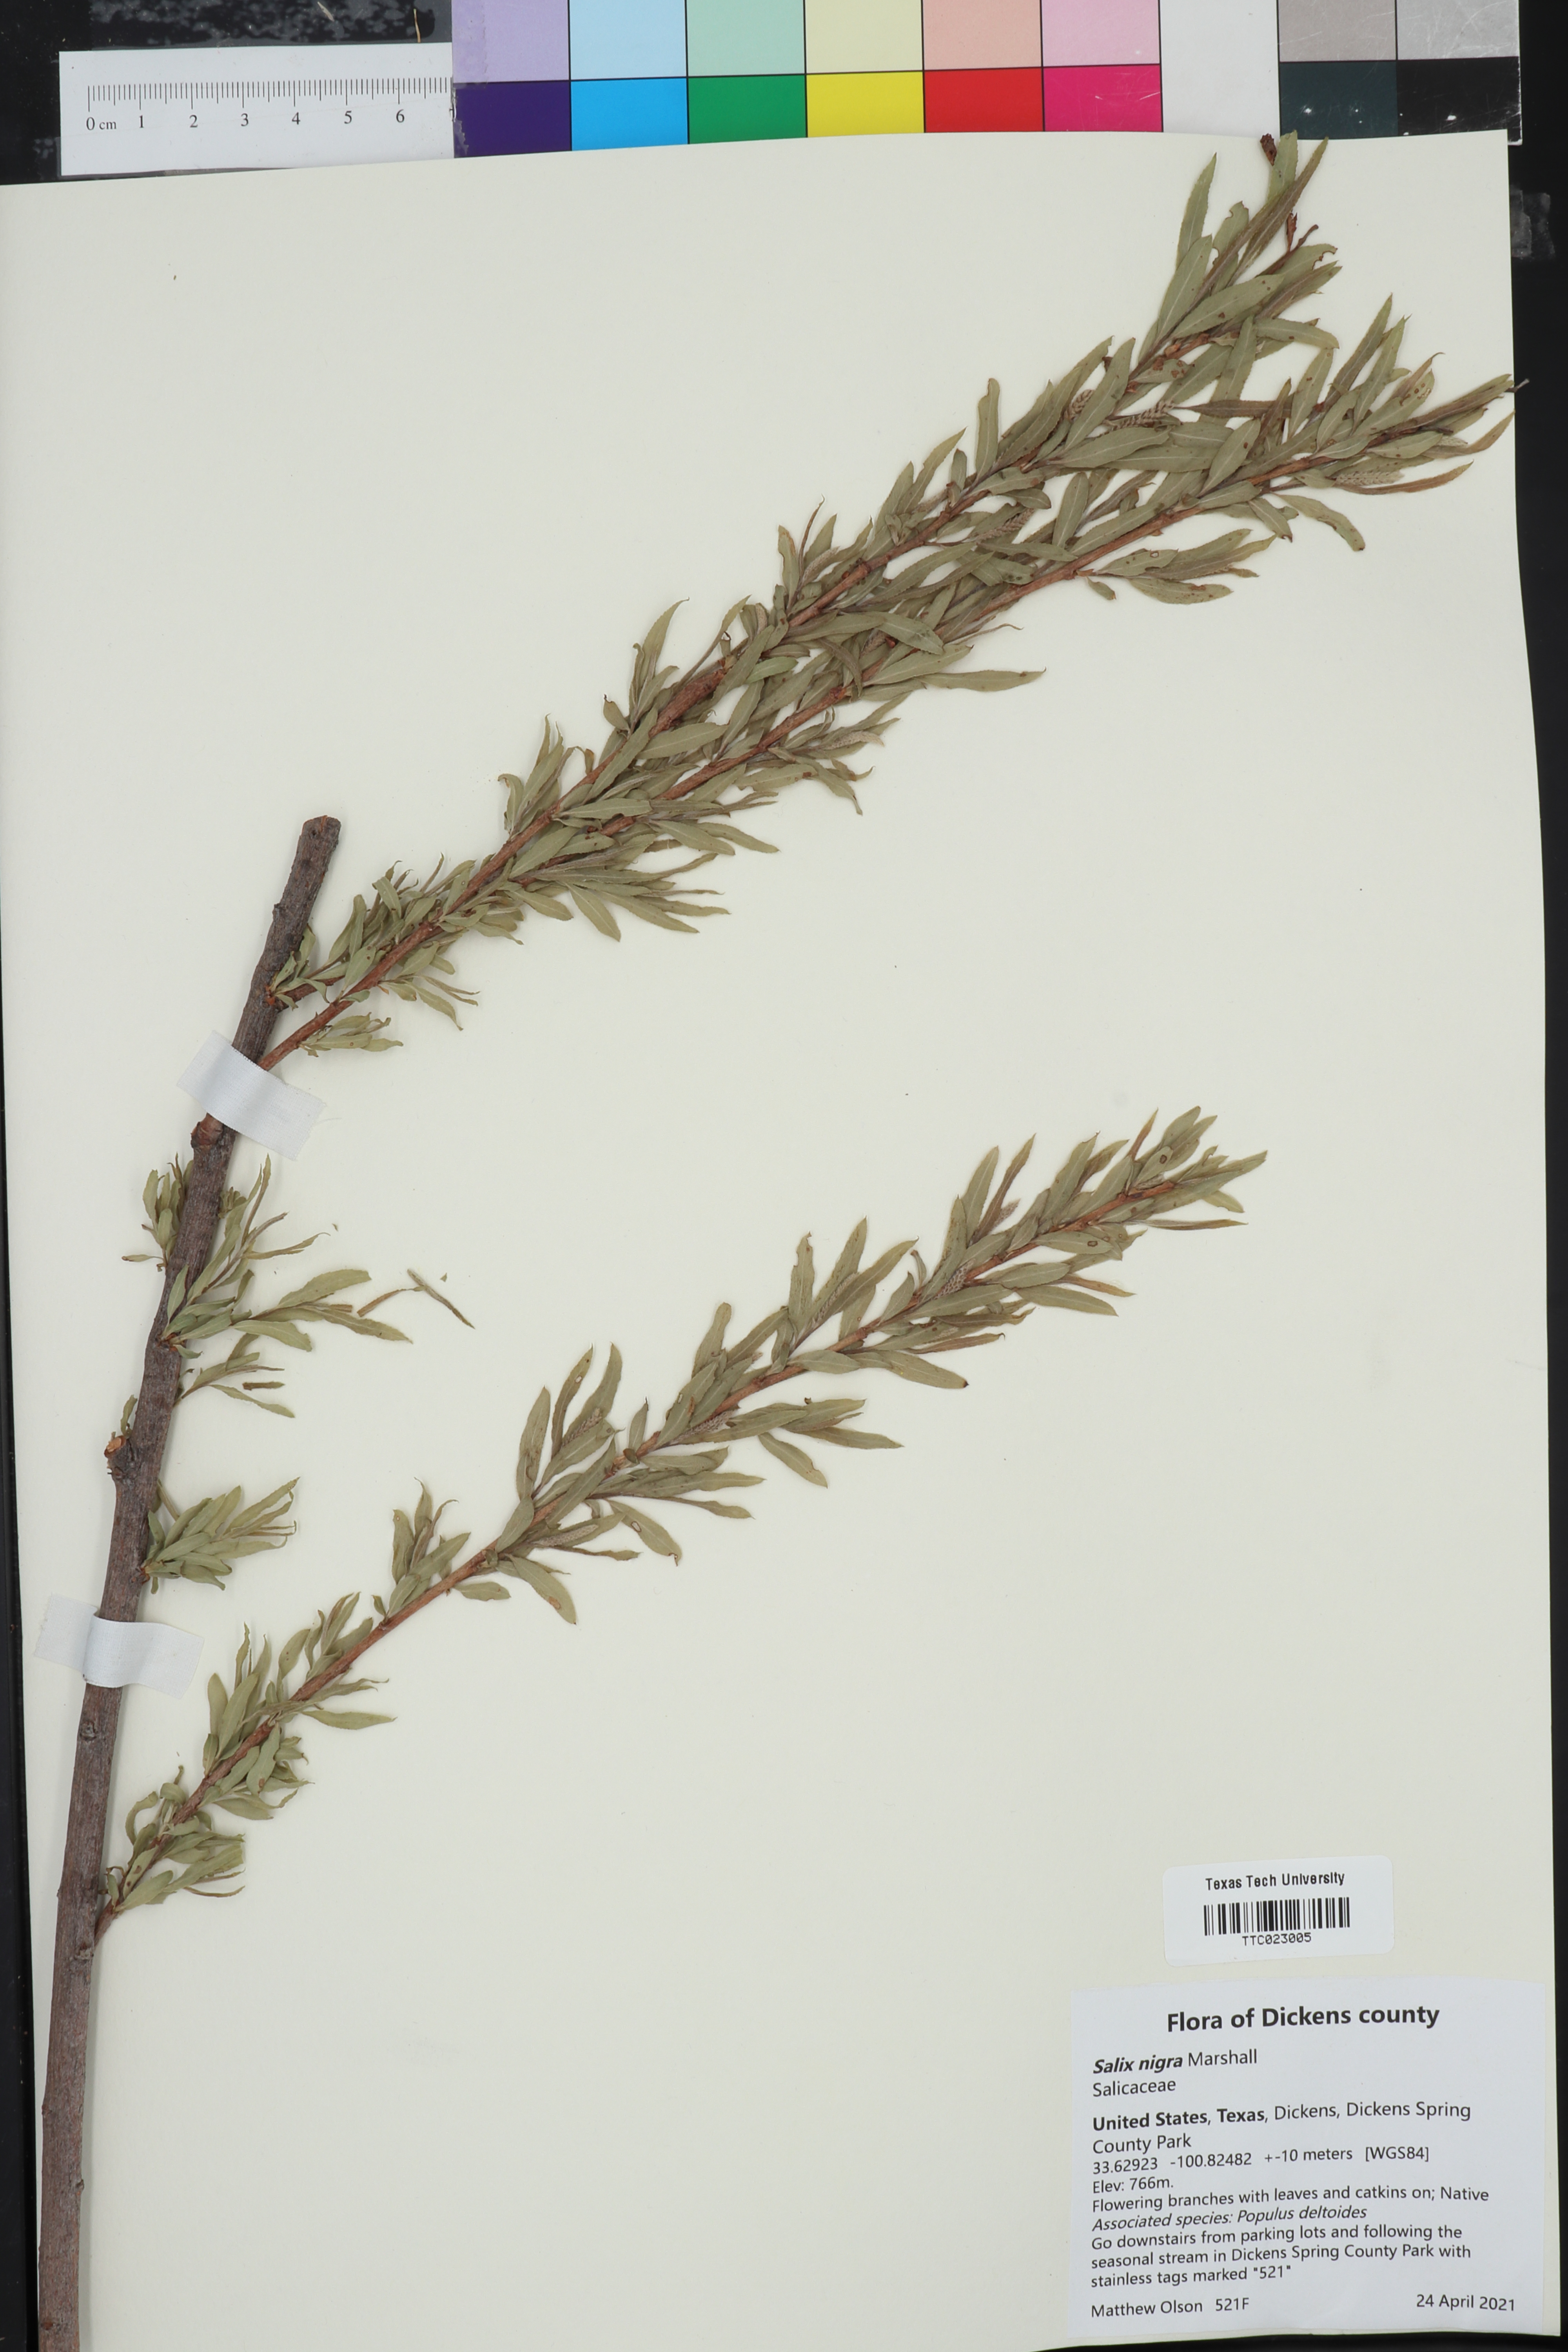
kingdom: Plantae
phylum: Tracheophyta
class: Magnoliopsida
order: Malpighiales
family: Salicaceae
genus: Salix
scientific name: Salix nigra
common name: Black willow
